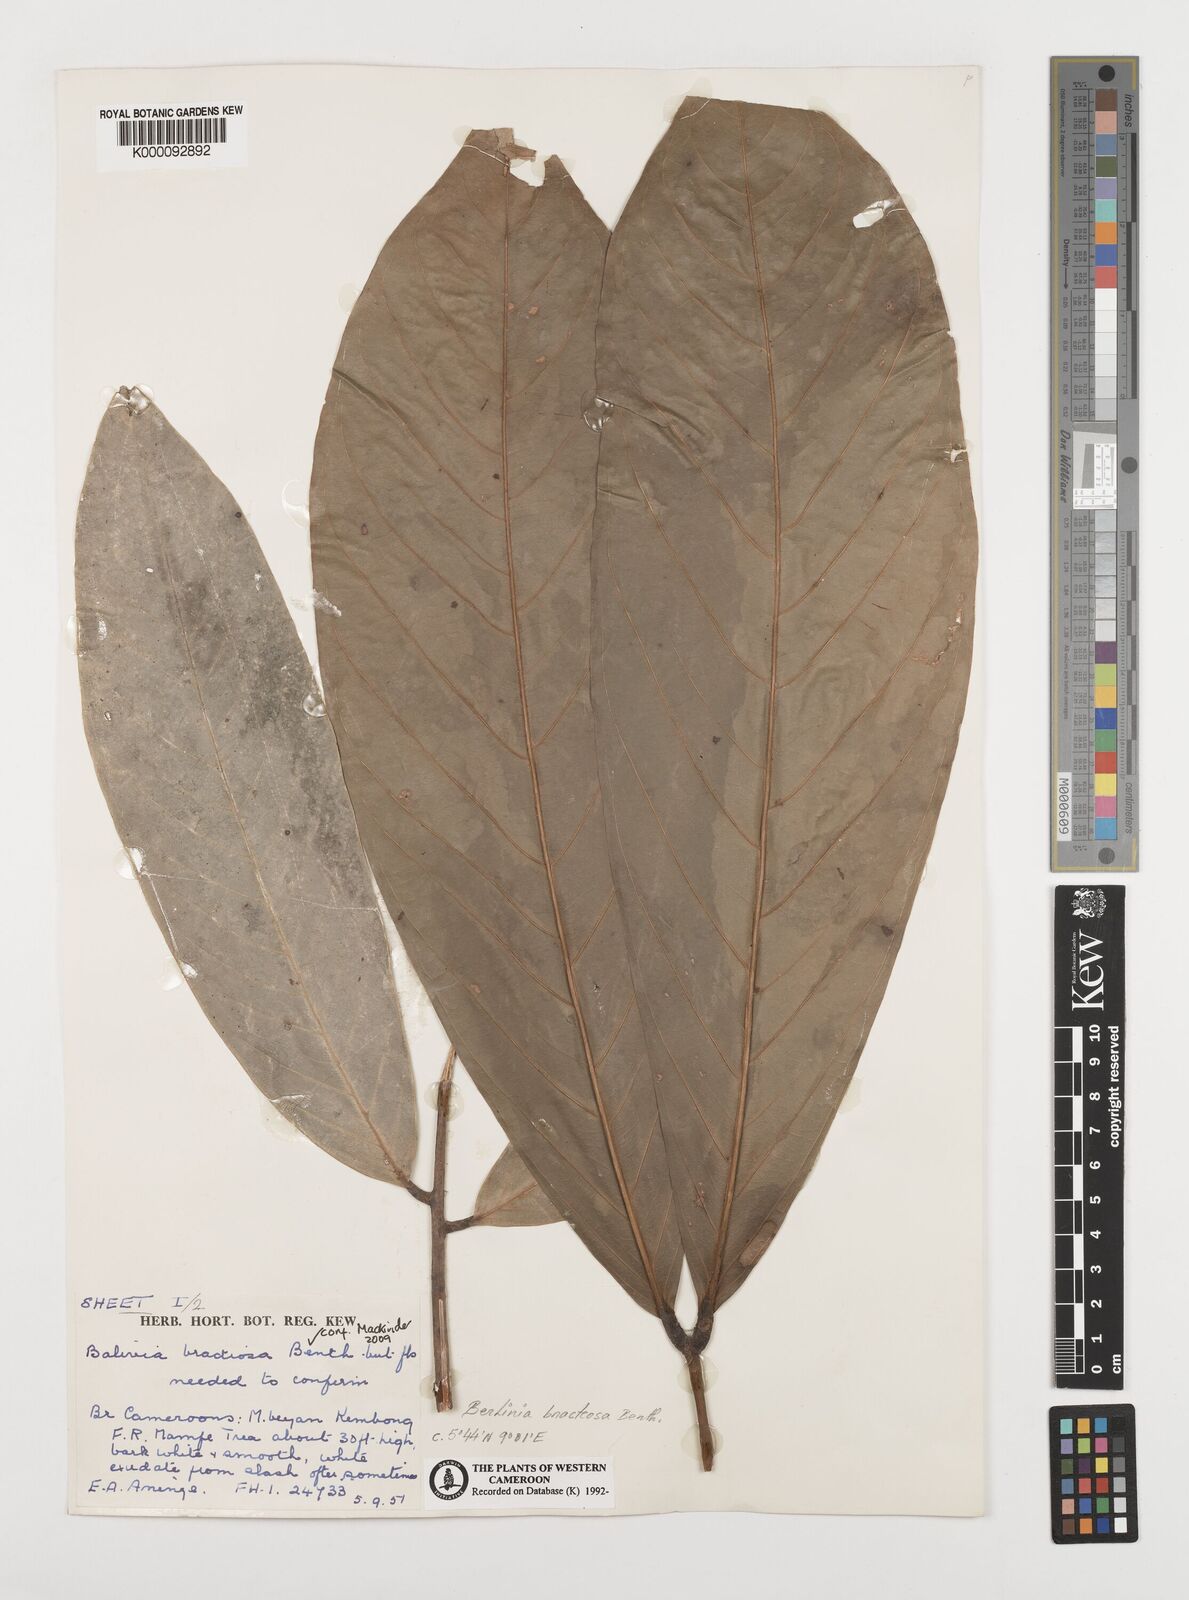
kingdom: Plantae
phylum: Tracheophyta
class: Magnoliopsida
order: Fabales
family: Fabaceae
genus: Berlinia
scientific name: Berlinia bracteosa
